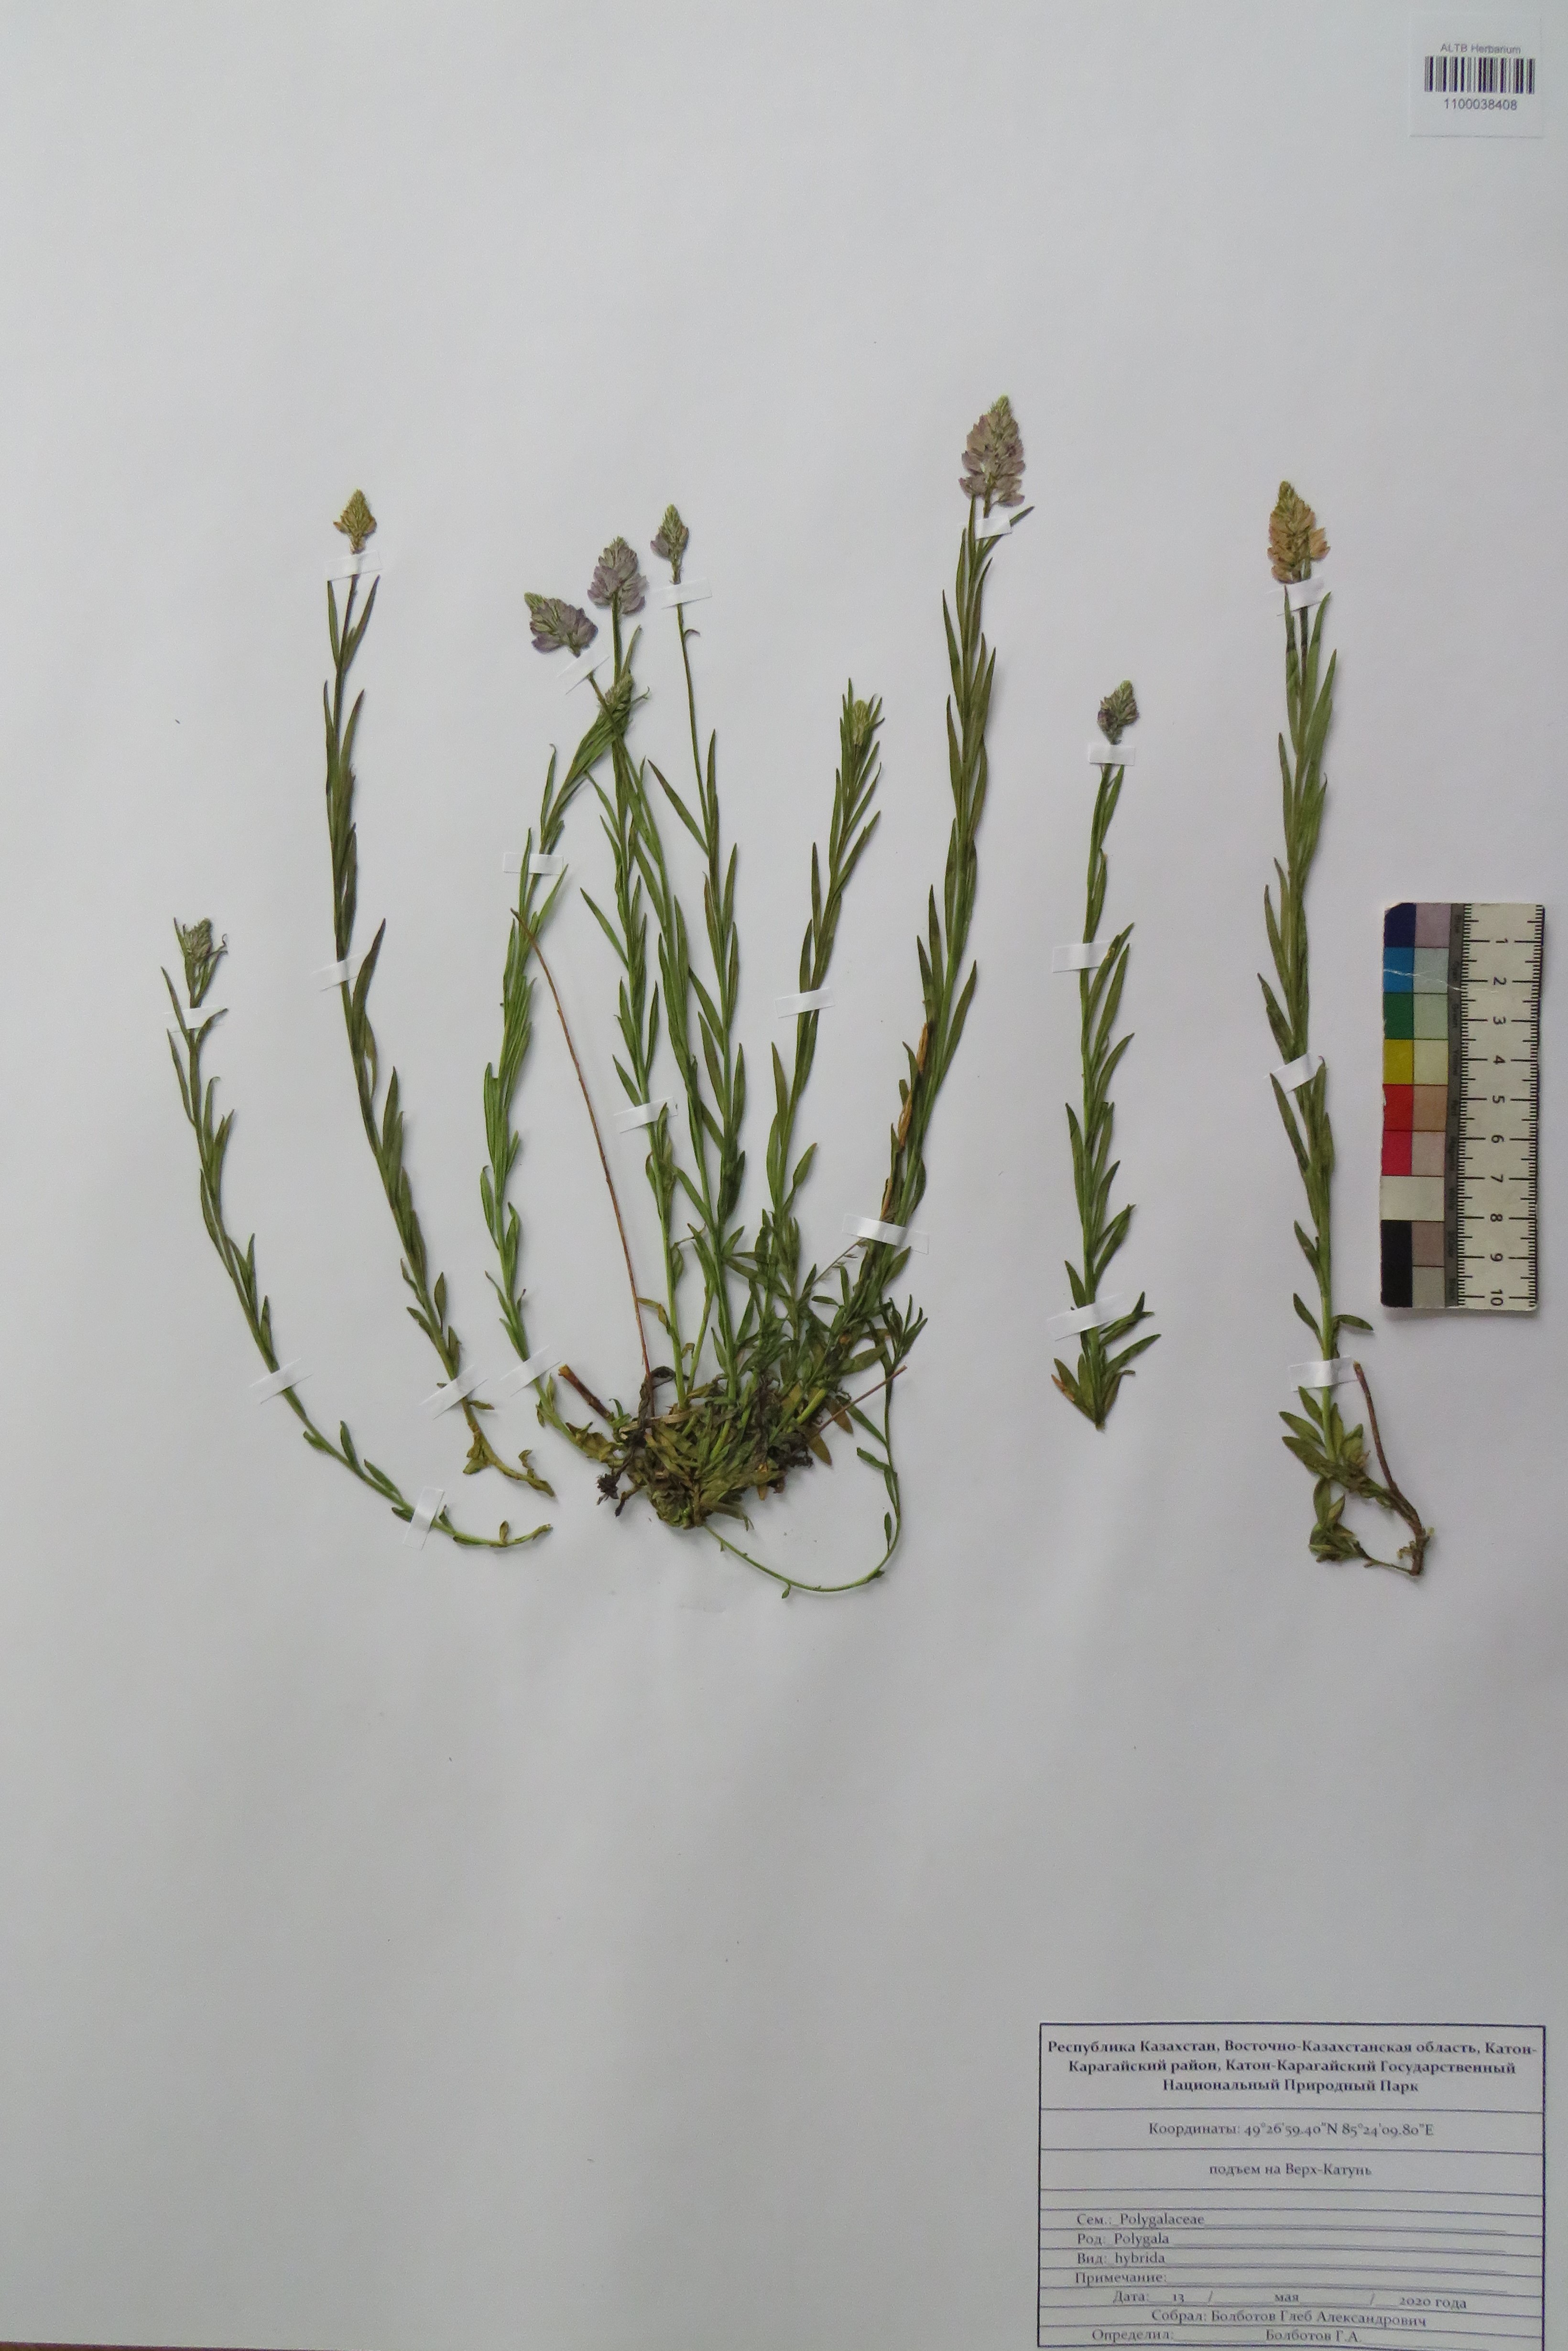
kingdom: Plantae
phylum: Tracheophyta
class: Magnoliopsida
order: Fabales
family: Polygalaceae
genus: Polygala
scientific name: Polygala comosa
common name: Tufted milkwort
